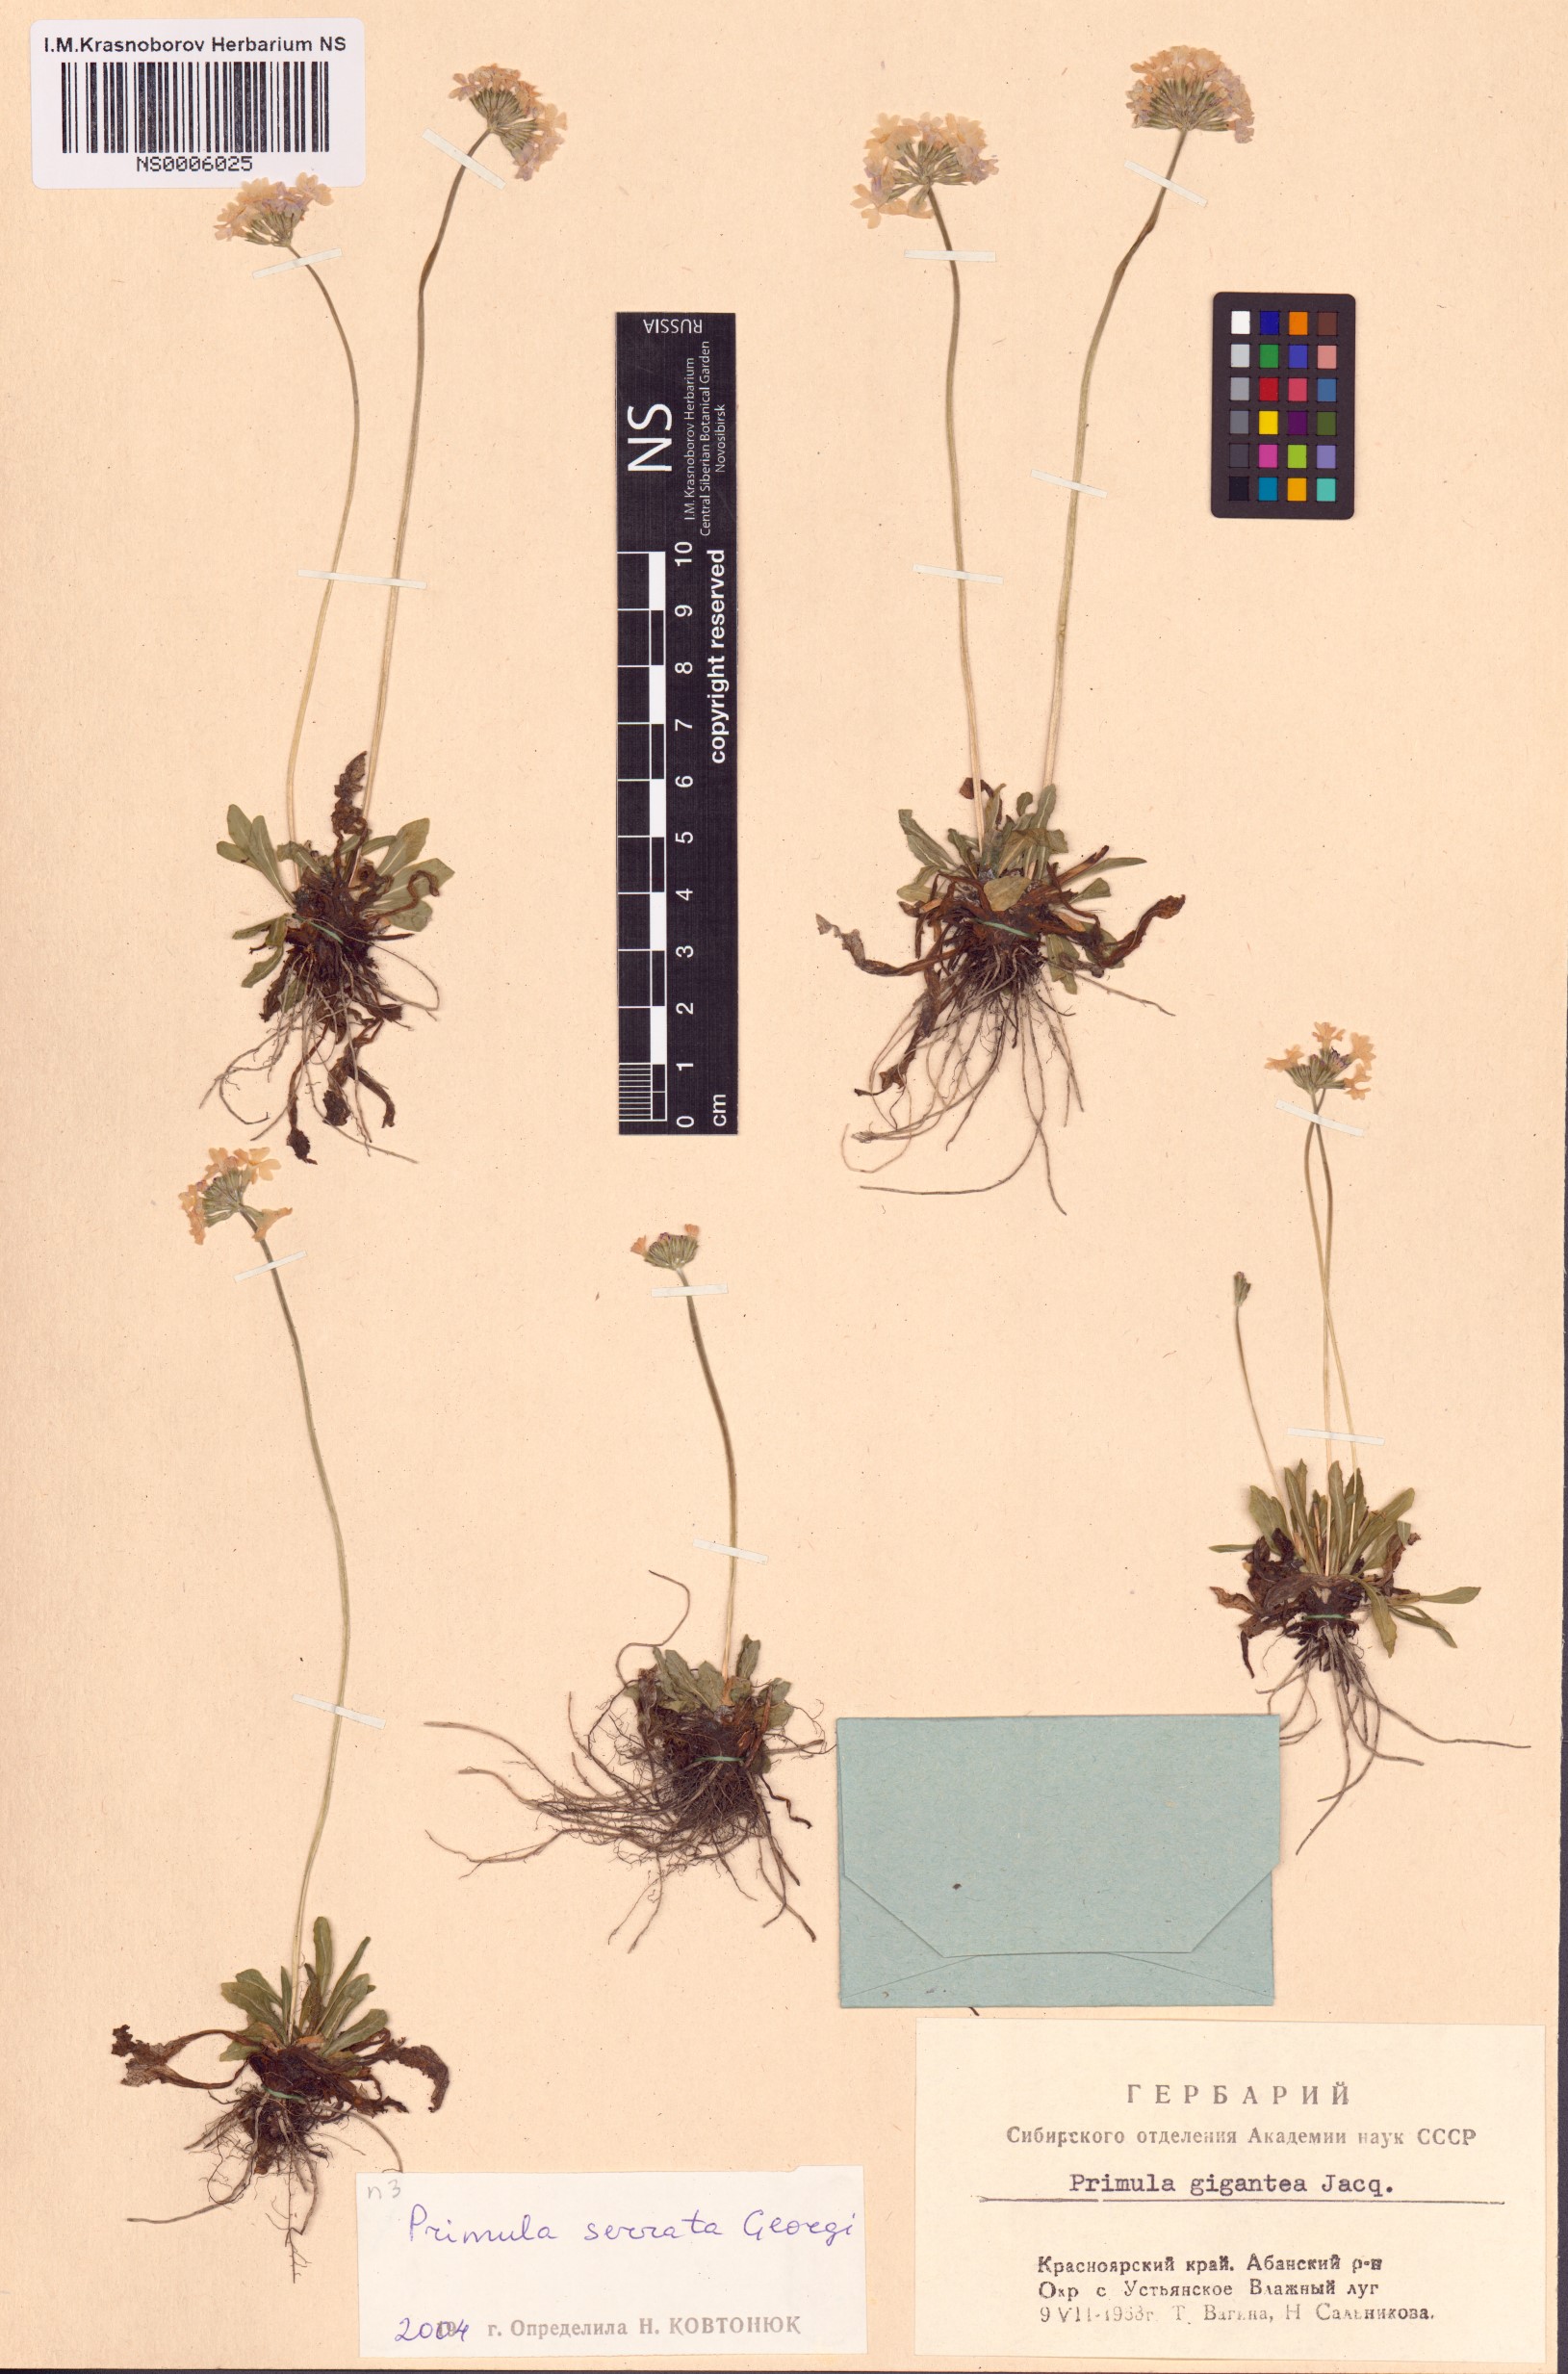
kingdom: Plantae
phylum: Tracheophyta
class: Magnoliopsida
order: Ericales
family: Primulaceae
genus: Primula
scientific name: Primula serrata
